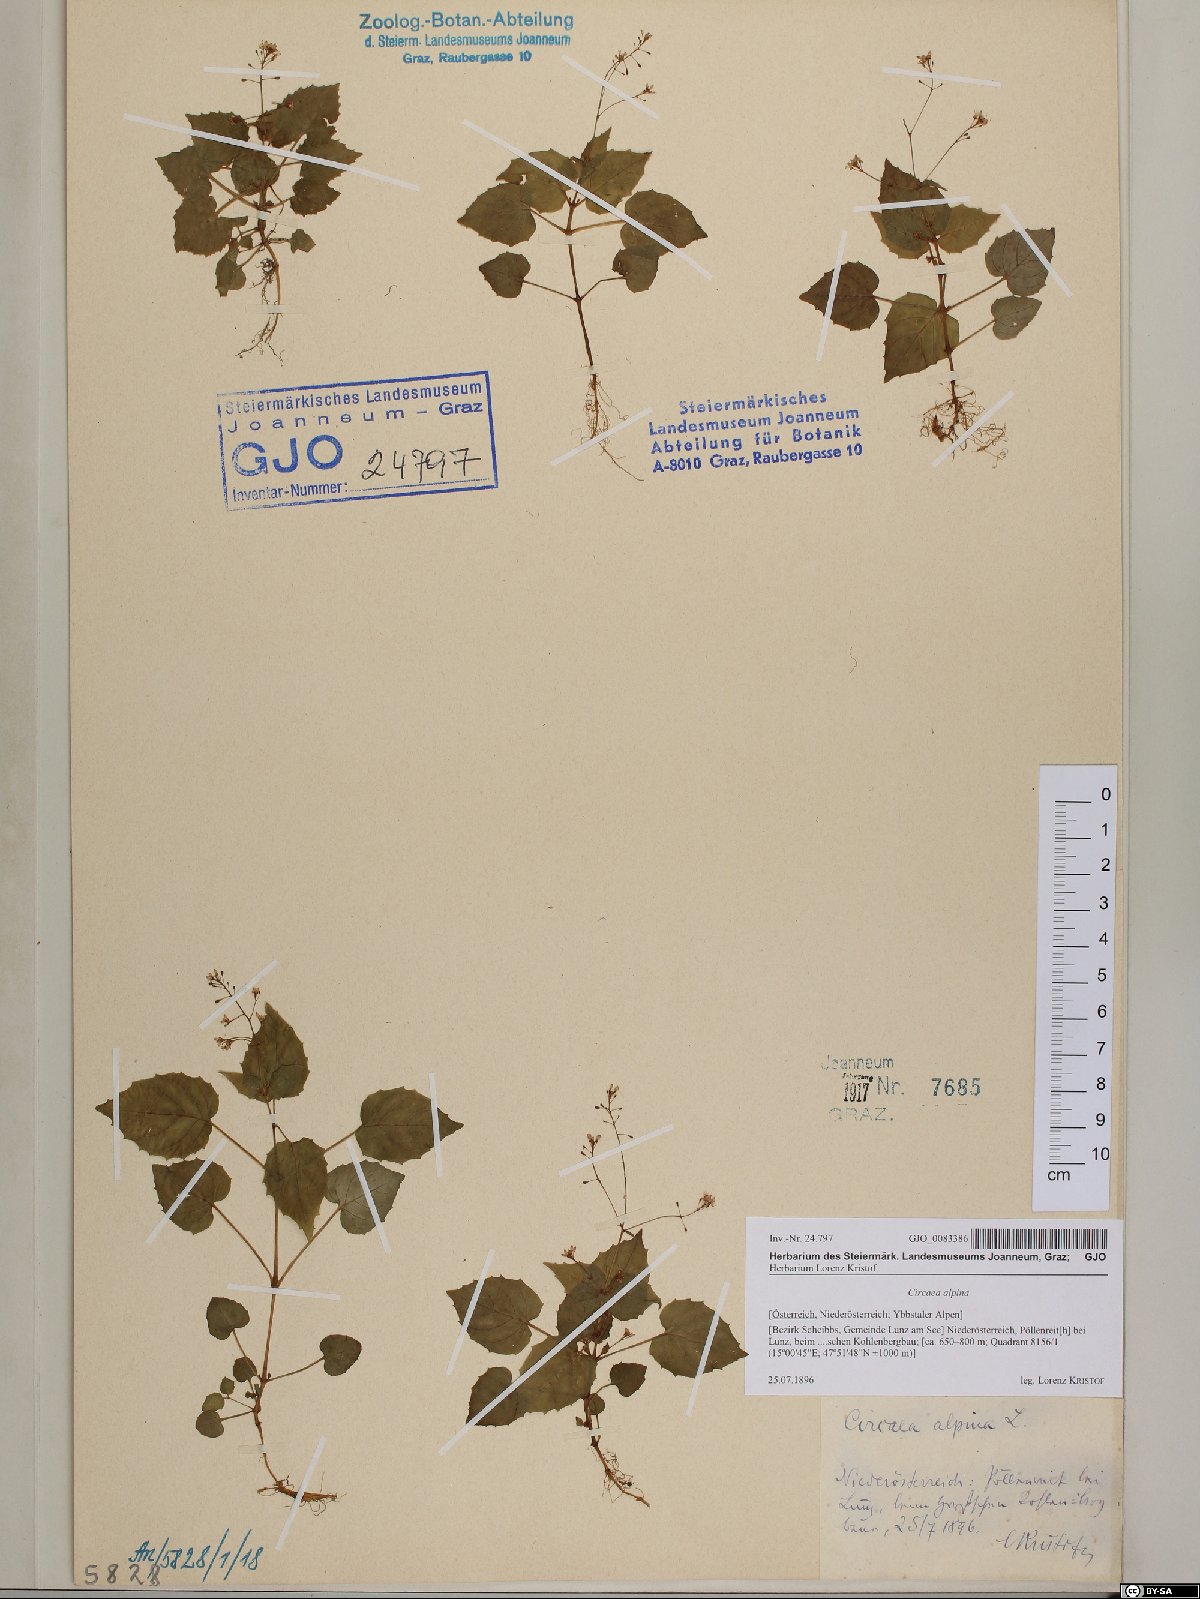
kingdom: Plantae
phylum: Tracheophyta
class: Magnoliopsida
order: Myrtales
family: Onagraceae
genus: Circaea
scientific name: Circaea alpina
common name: Alpine enchanter's-nightshade
